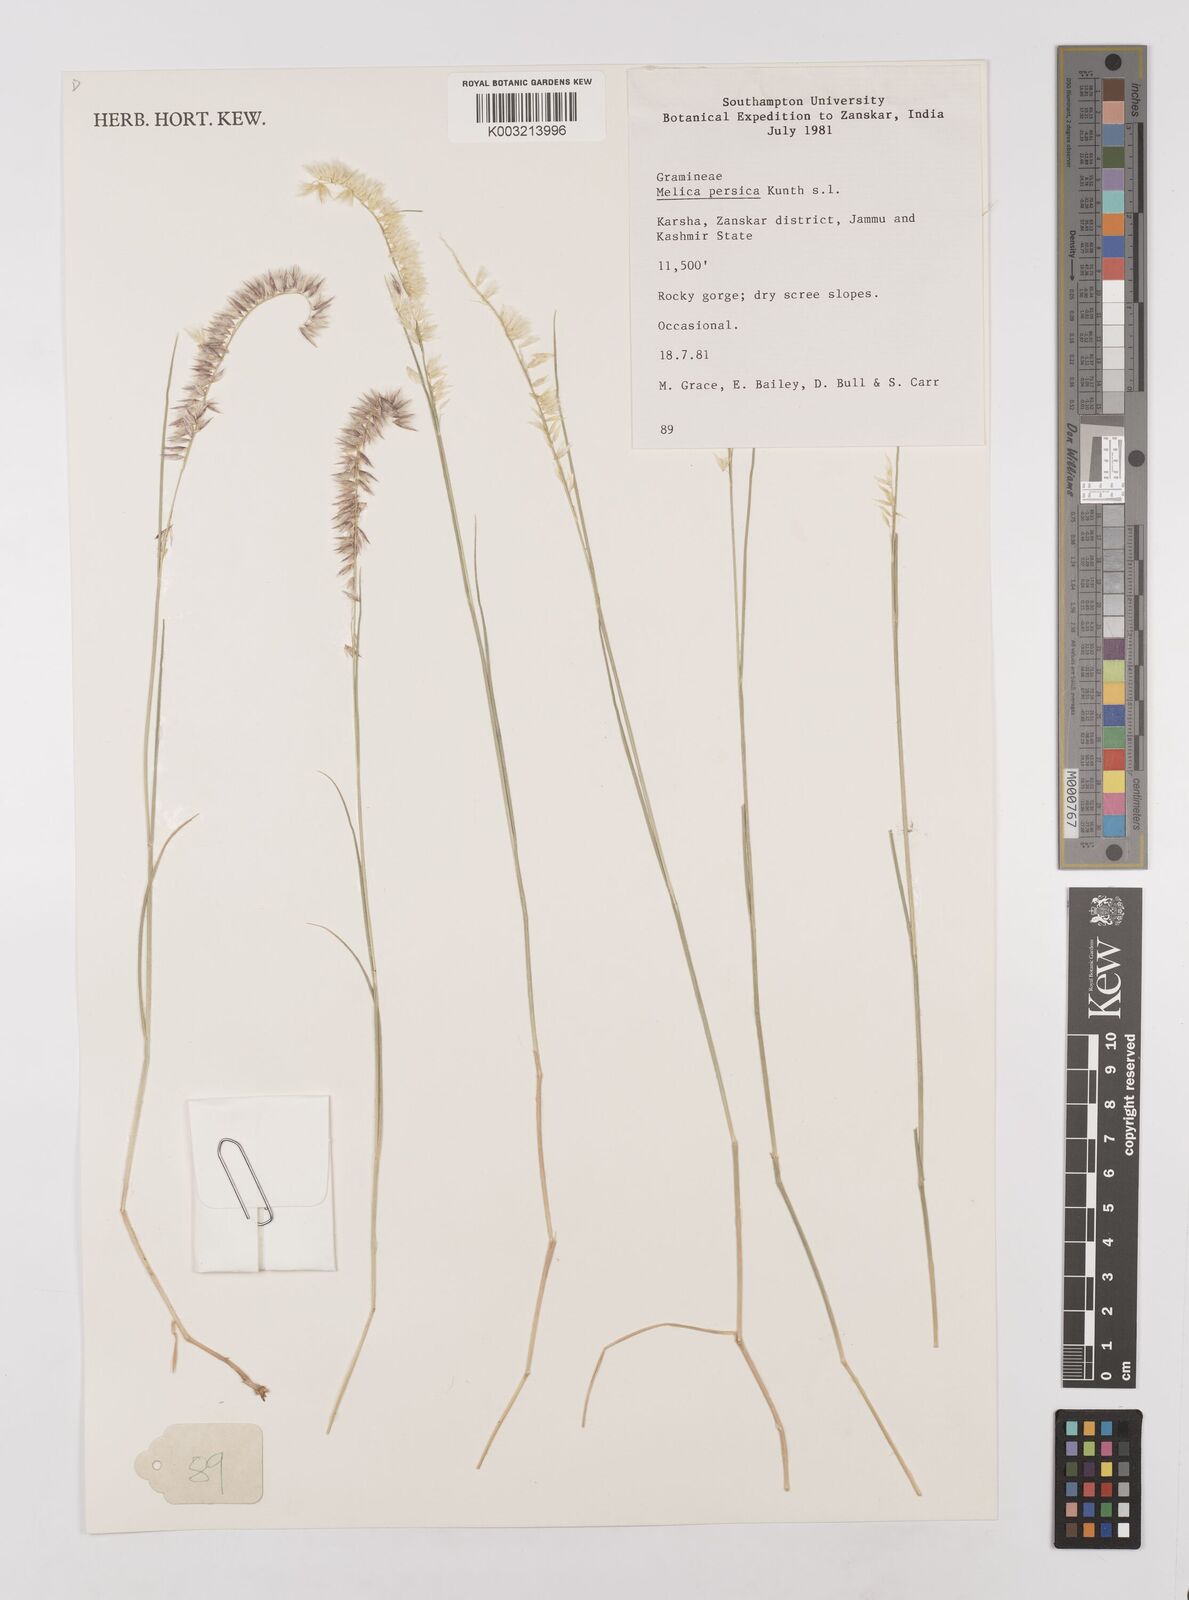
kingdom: Plantae
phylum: Tracheophyta
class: Liliopsida
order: Poales
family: Poaceae
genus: Melica
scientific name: Melica persica
